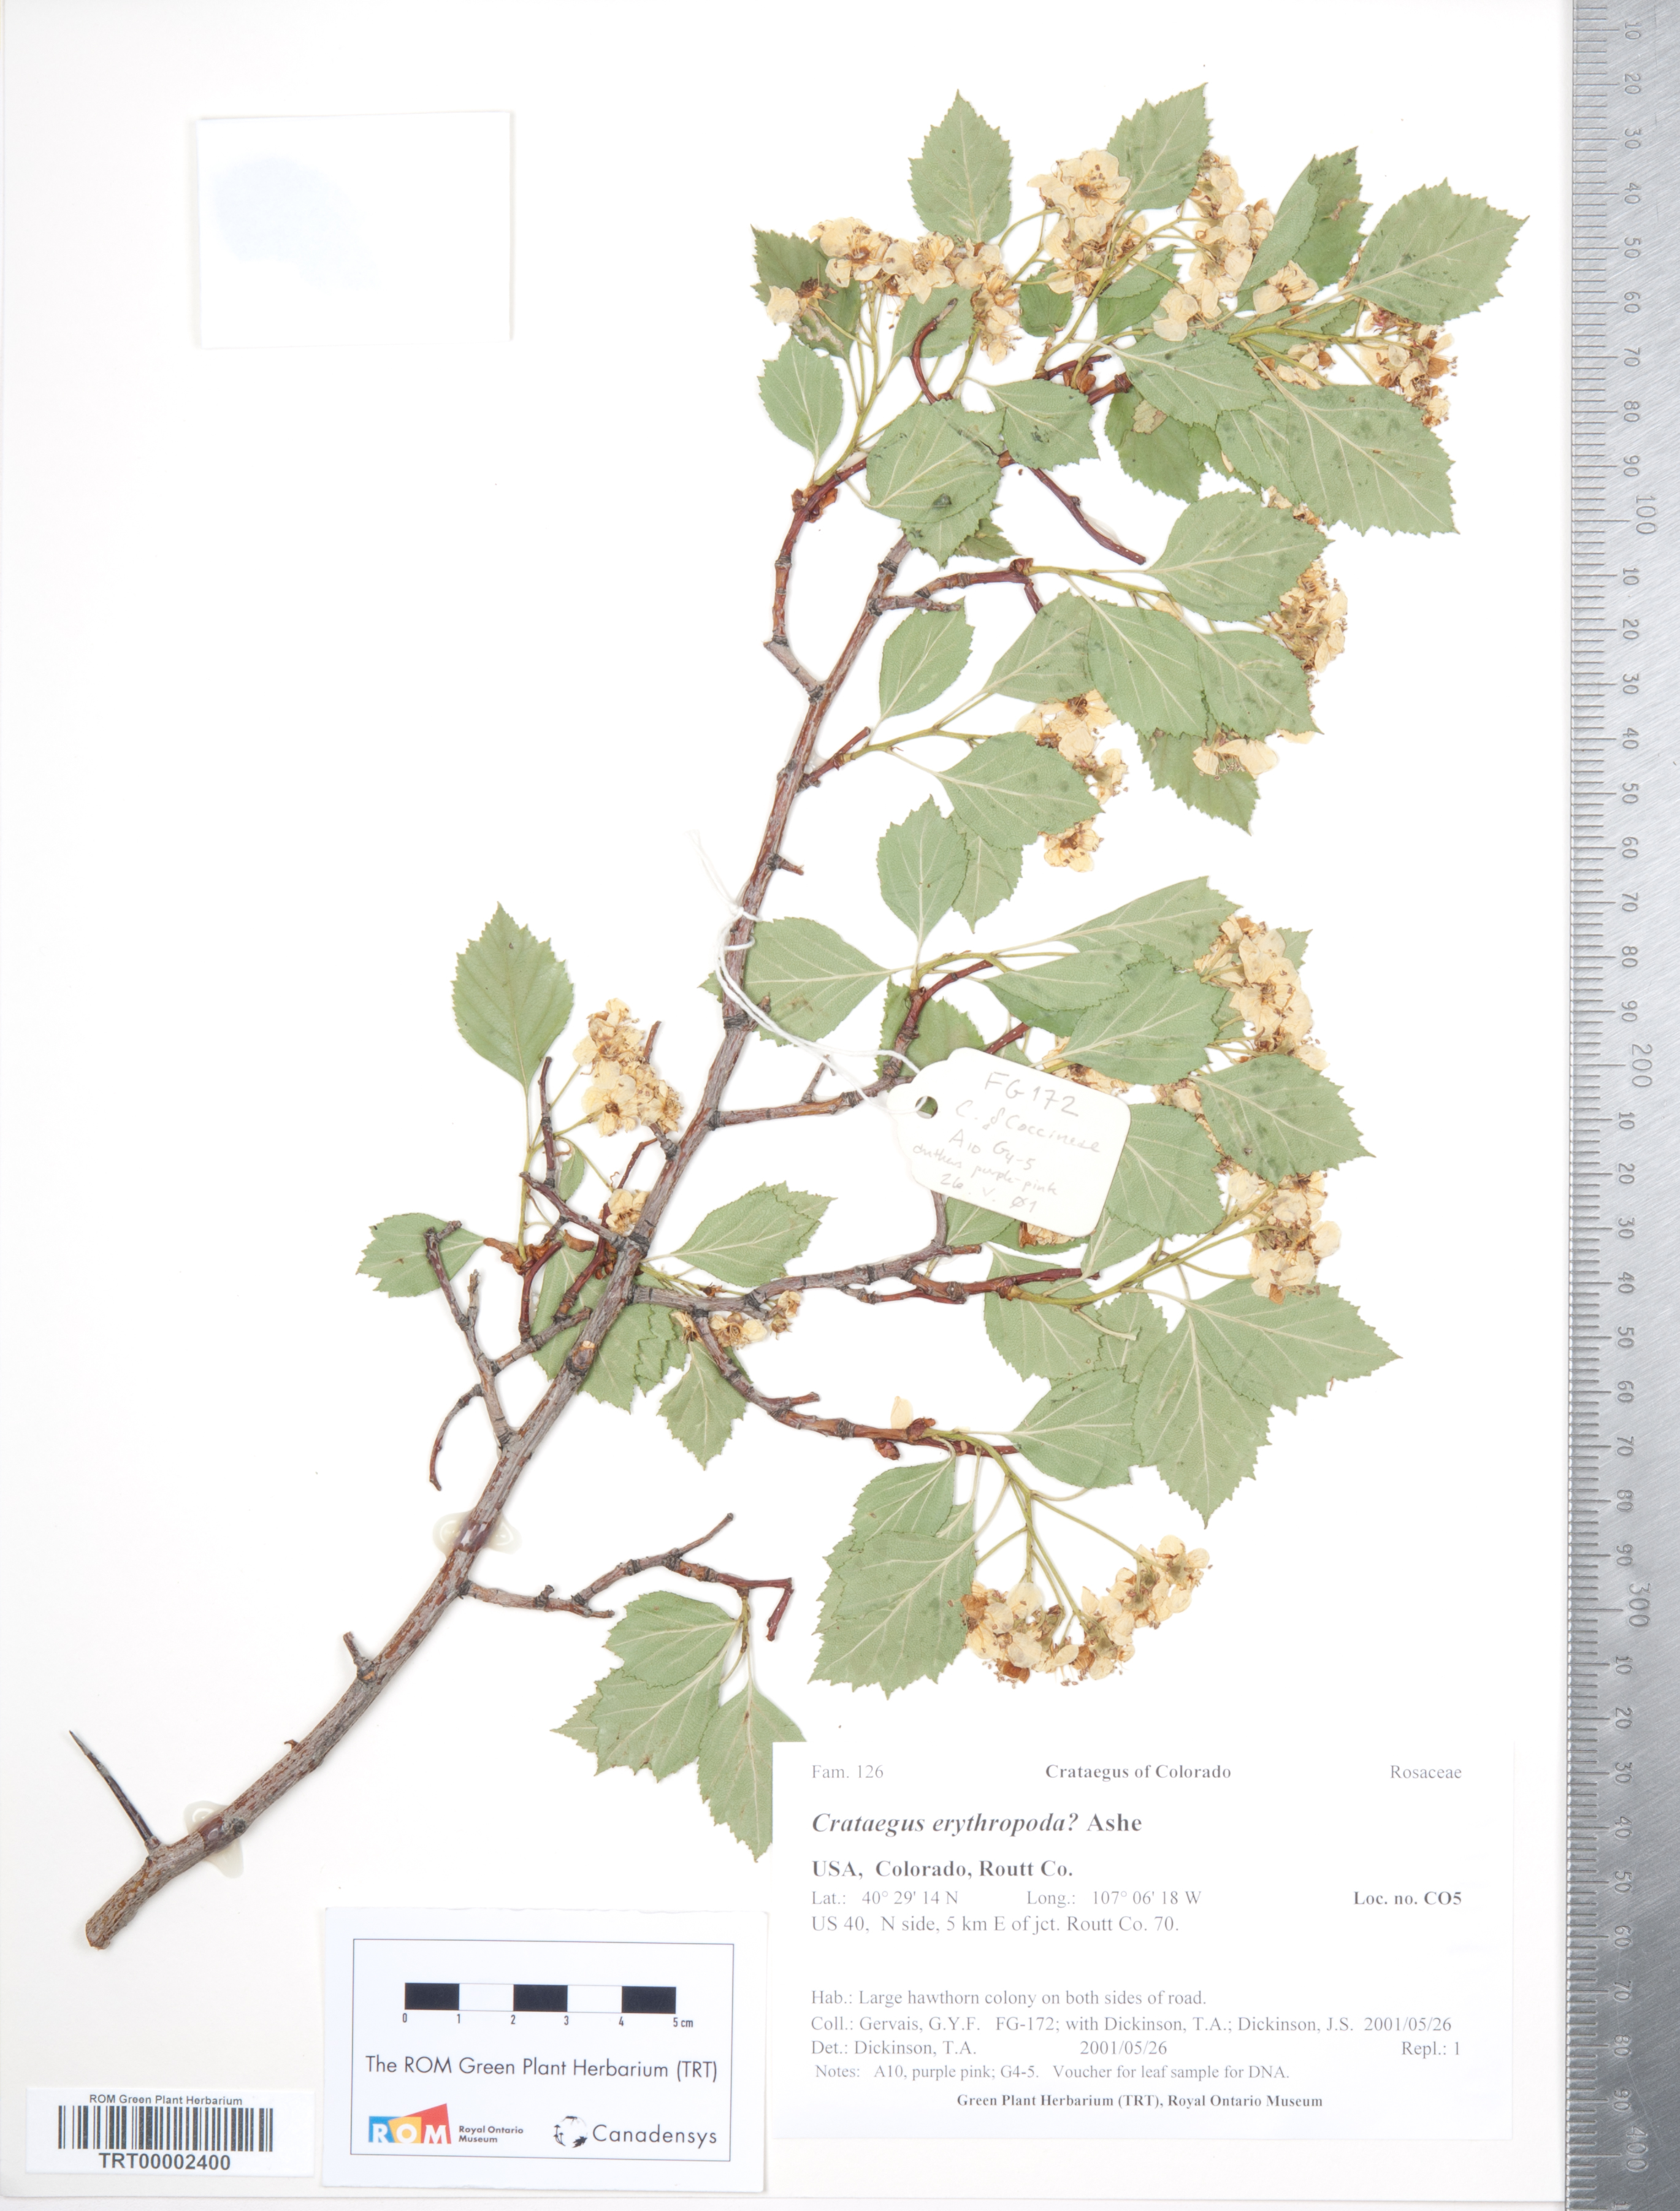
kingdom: Plantae
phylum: Tracheophyta
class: Magnoliopsida
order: Rosales
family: Rosaceae
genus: Crataegus
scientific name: Crataegus erythropoda
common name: Cerro hawthorn
